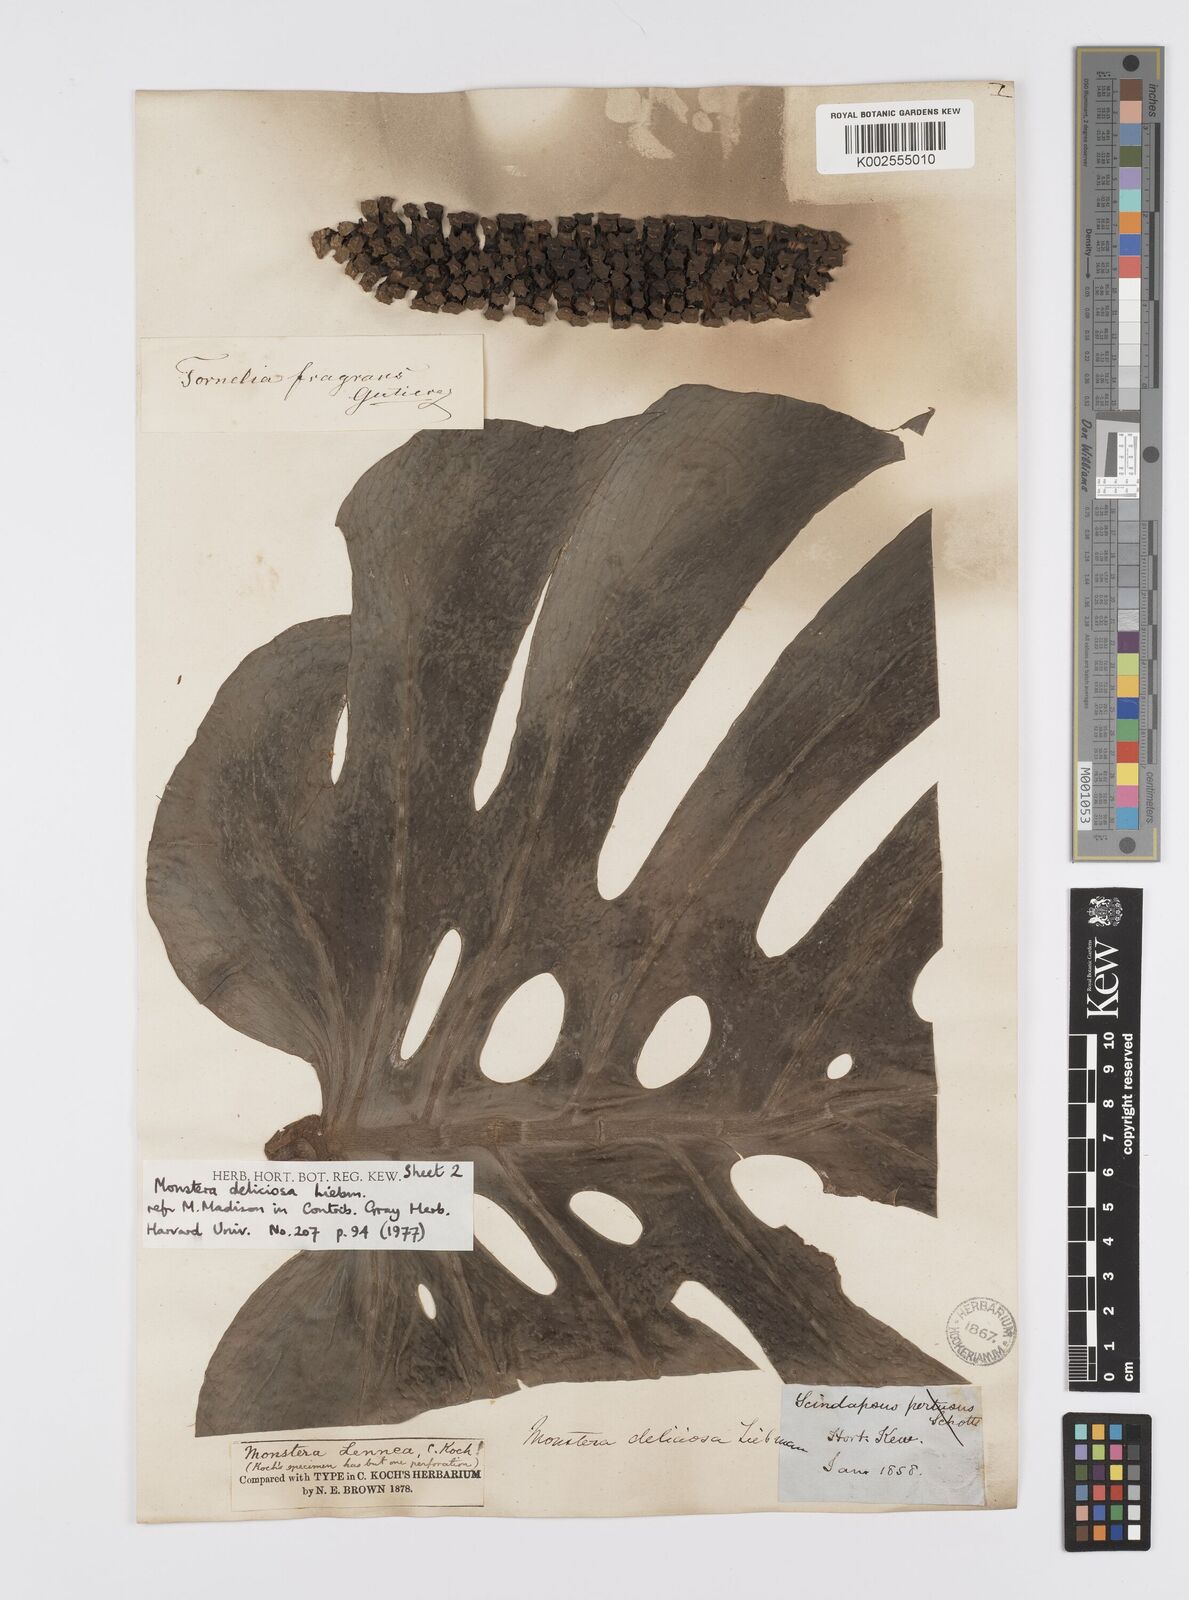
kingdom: Plantae
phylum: Tracheophyta
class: Liliopsida
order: Alismatales
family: Araceae
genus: Monstera
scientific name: Monstera deliciosa
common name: Cut-leaf-philodendron
